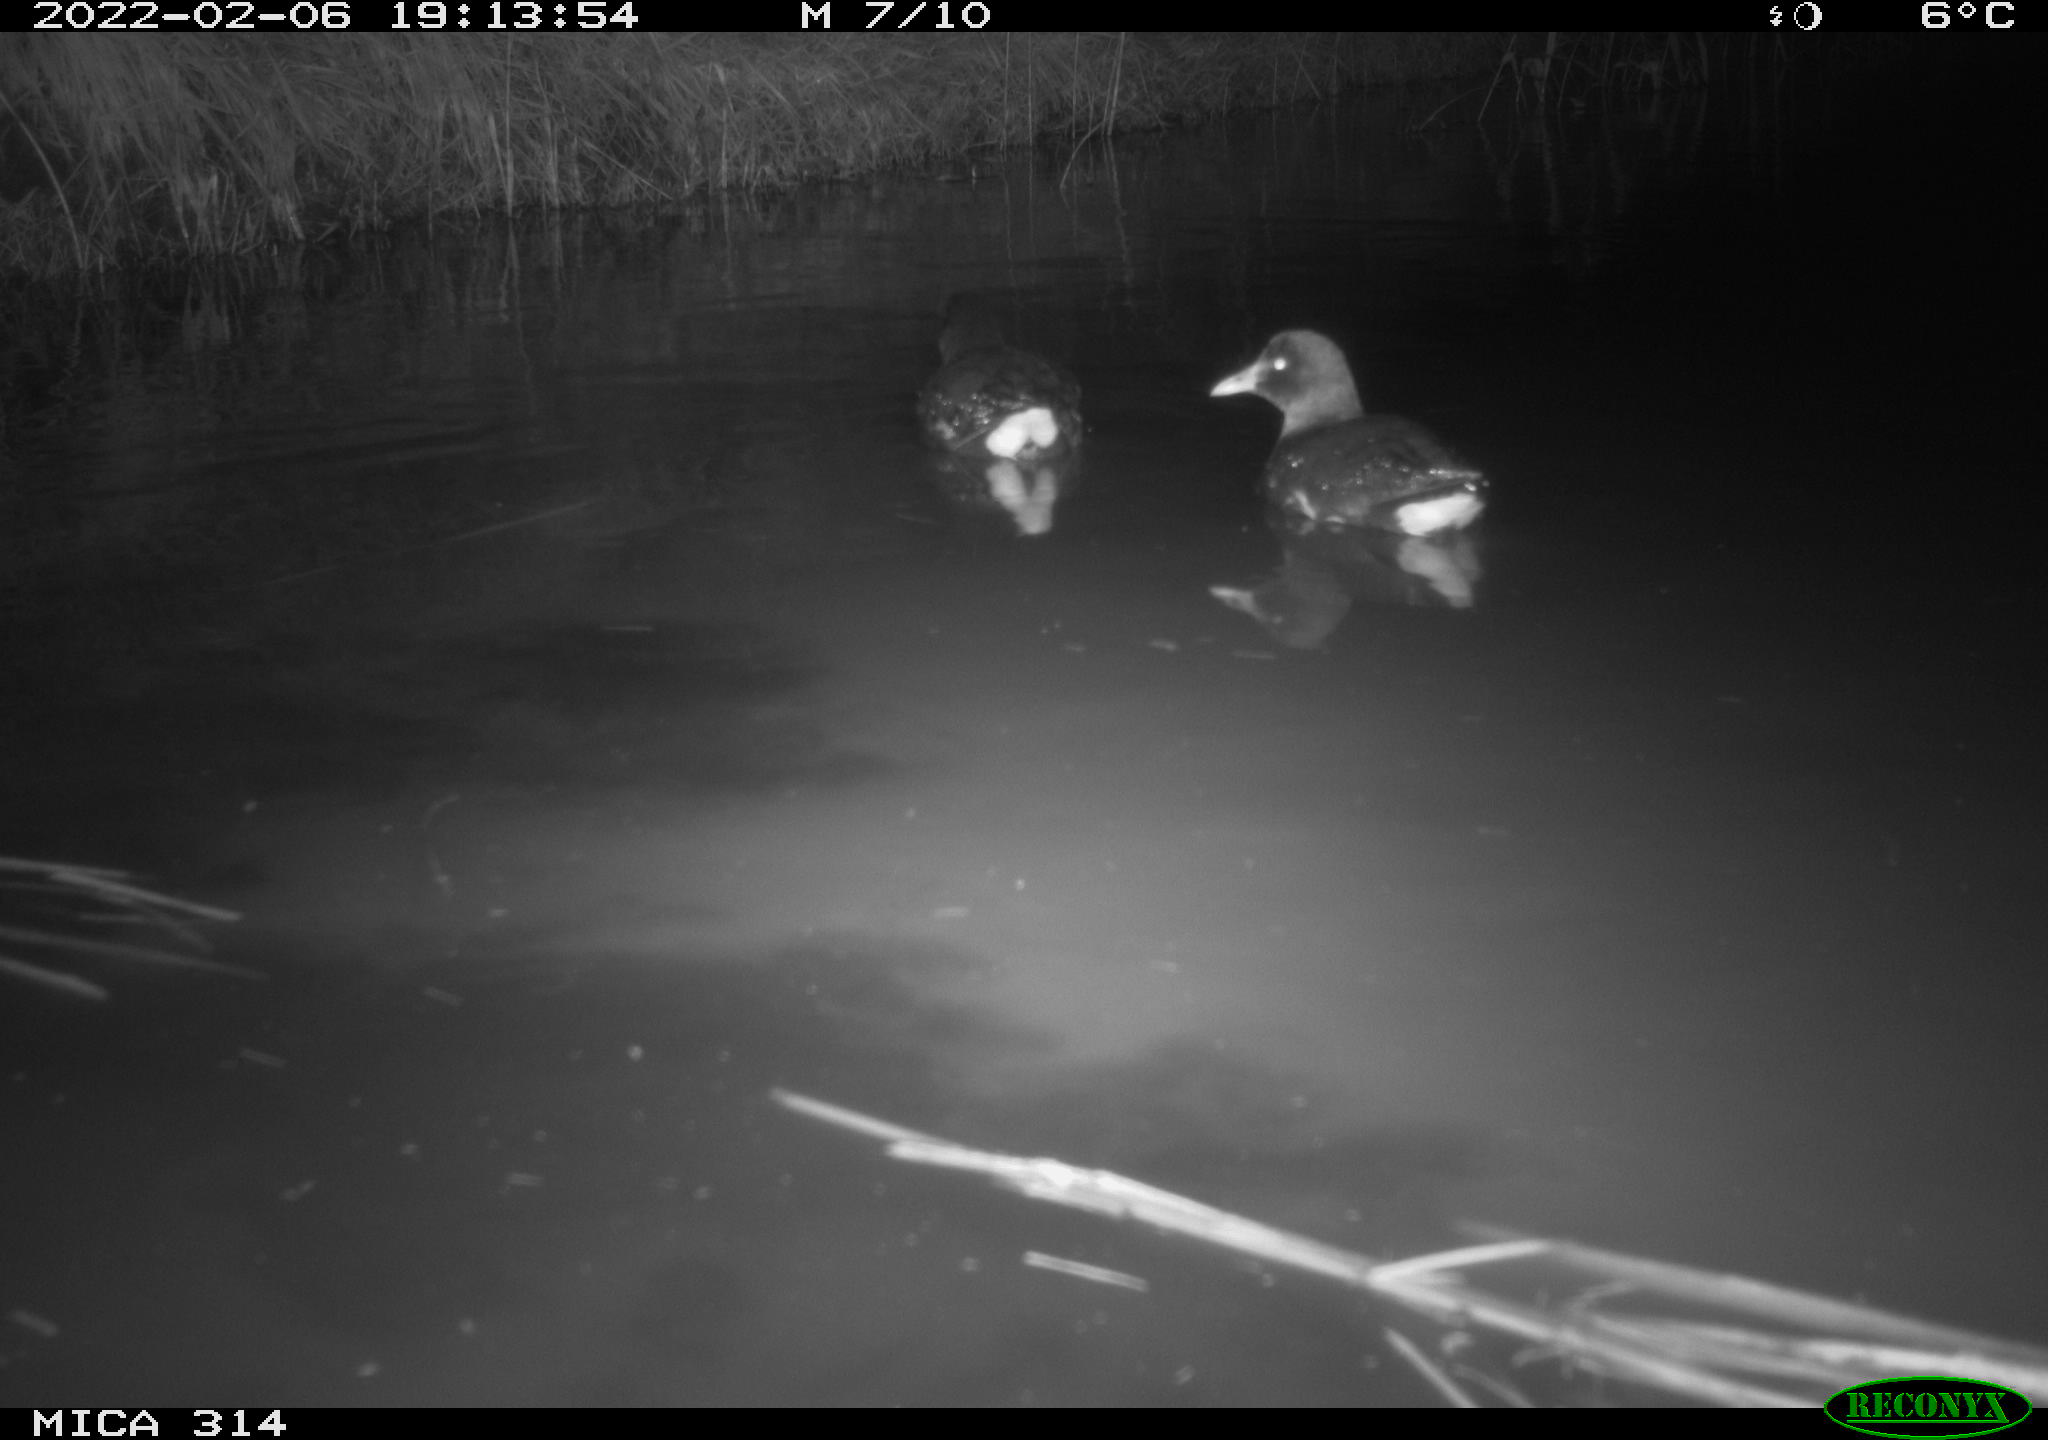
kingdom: Animalia
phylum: Chordata
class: Aves
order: Gruiformes
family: Rallidae
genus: Gallinula
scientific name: Gallinula chloropus
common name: Common moorhen
